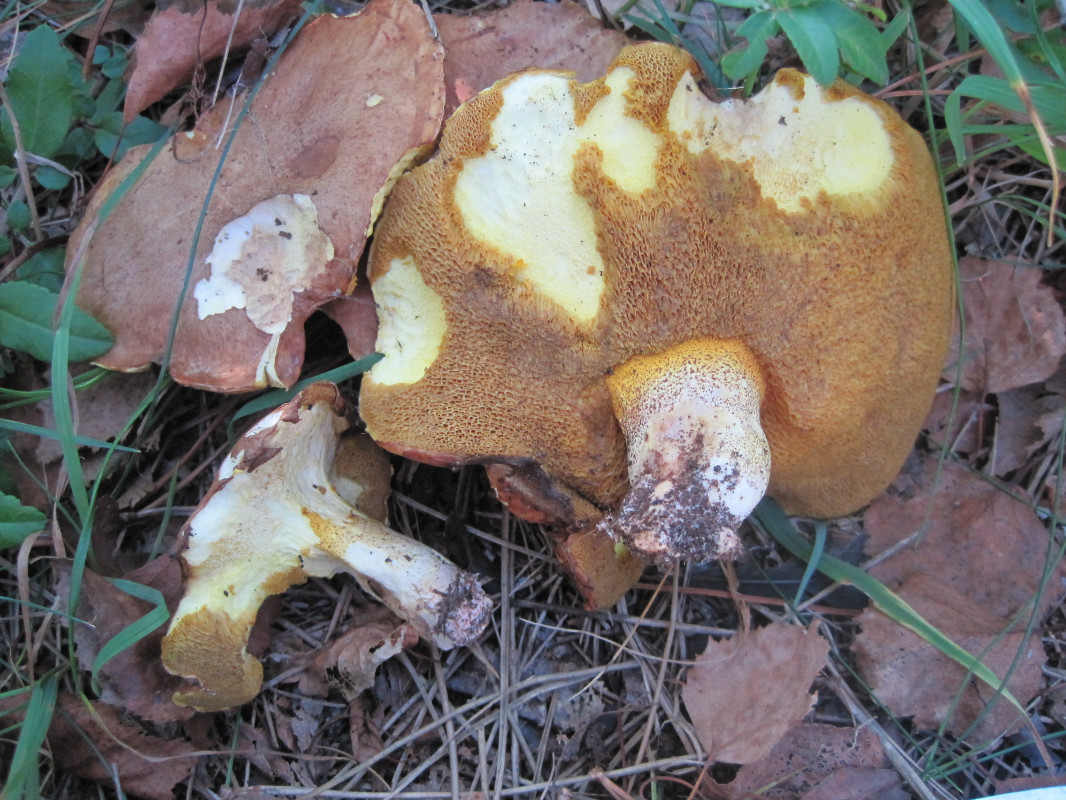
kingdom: Fungi
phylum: Basidiomycota
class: Agaricomycetes
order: Boletales
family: Suillaceae
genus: Suillus
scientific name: Suillus collinitus
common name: rosafodet slimrørhat
